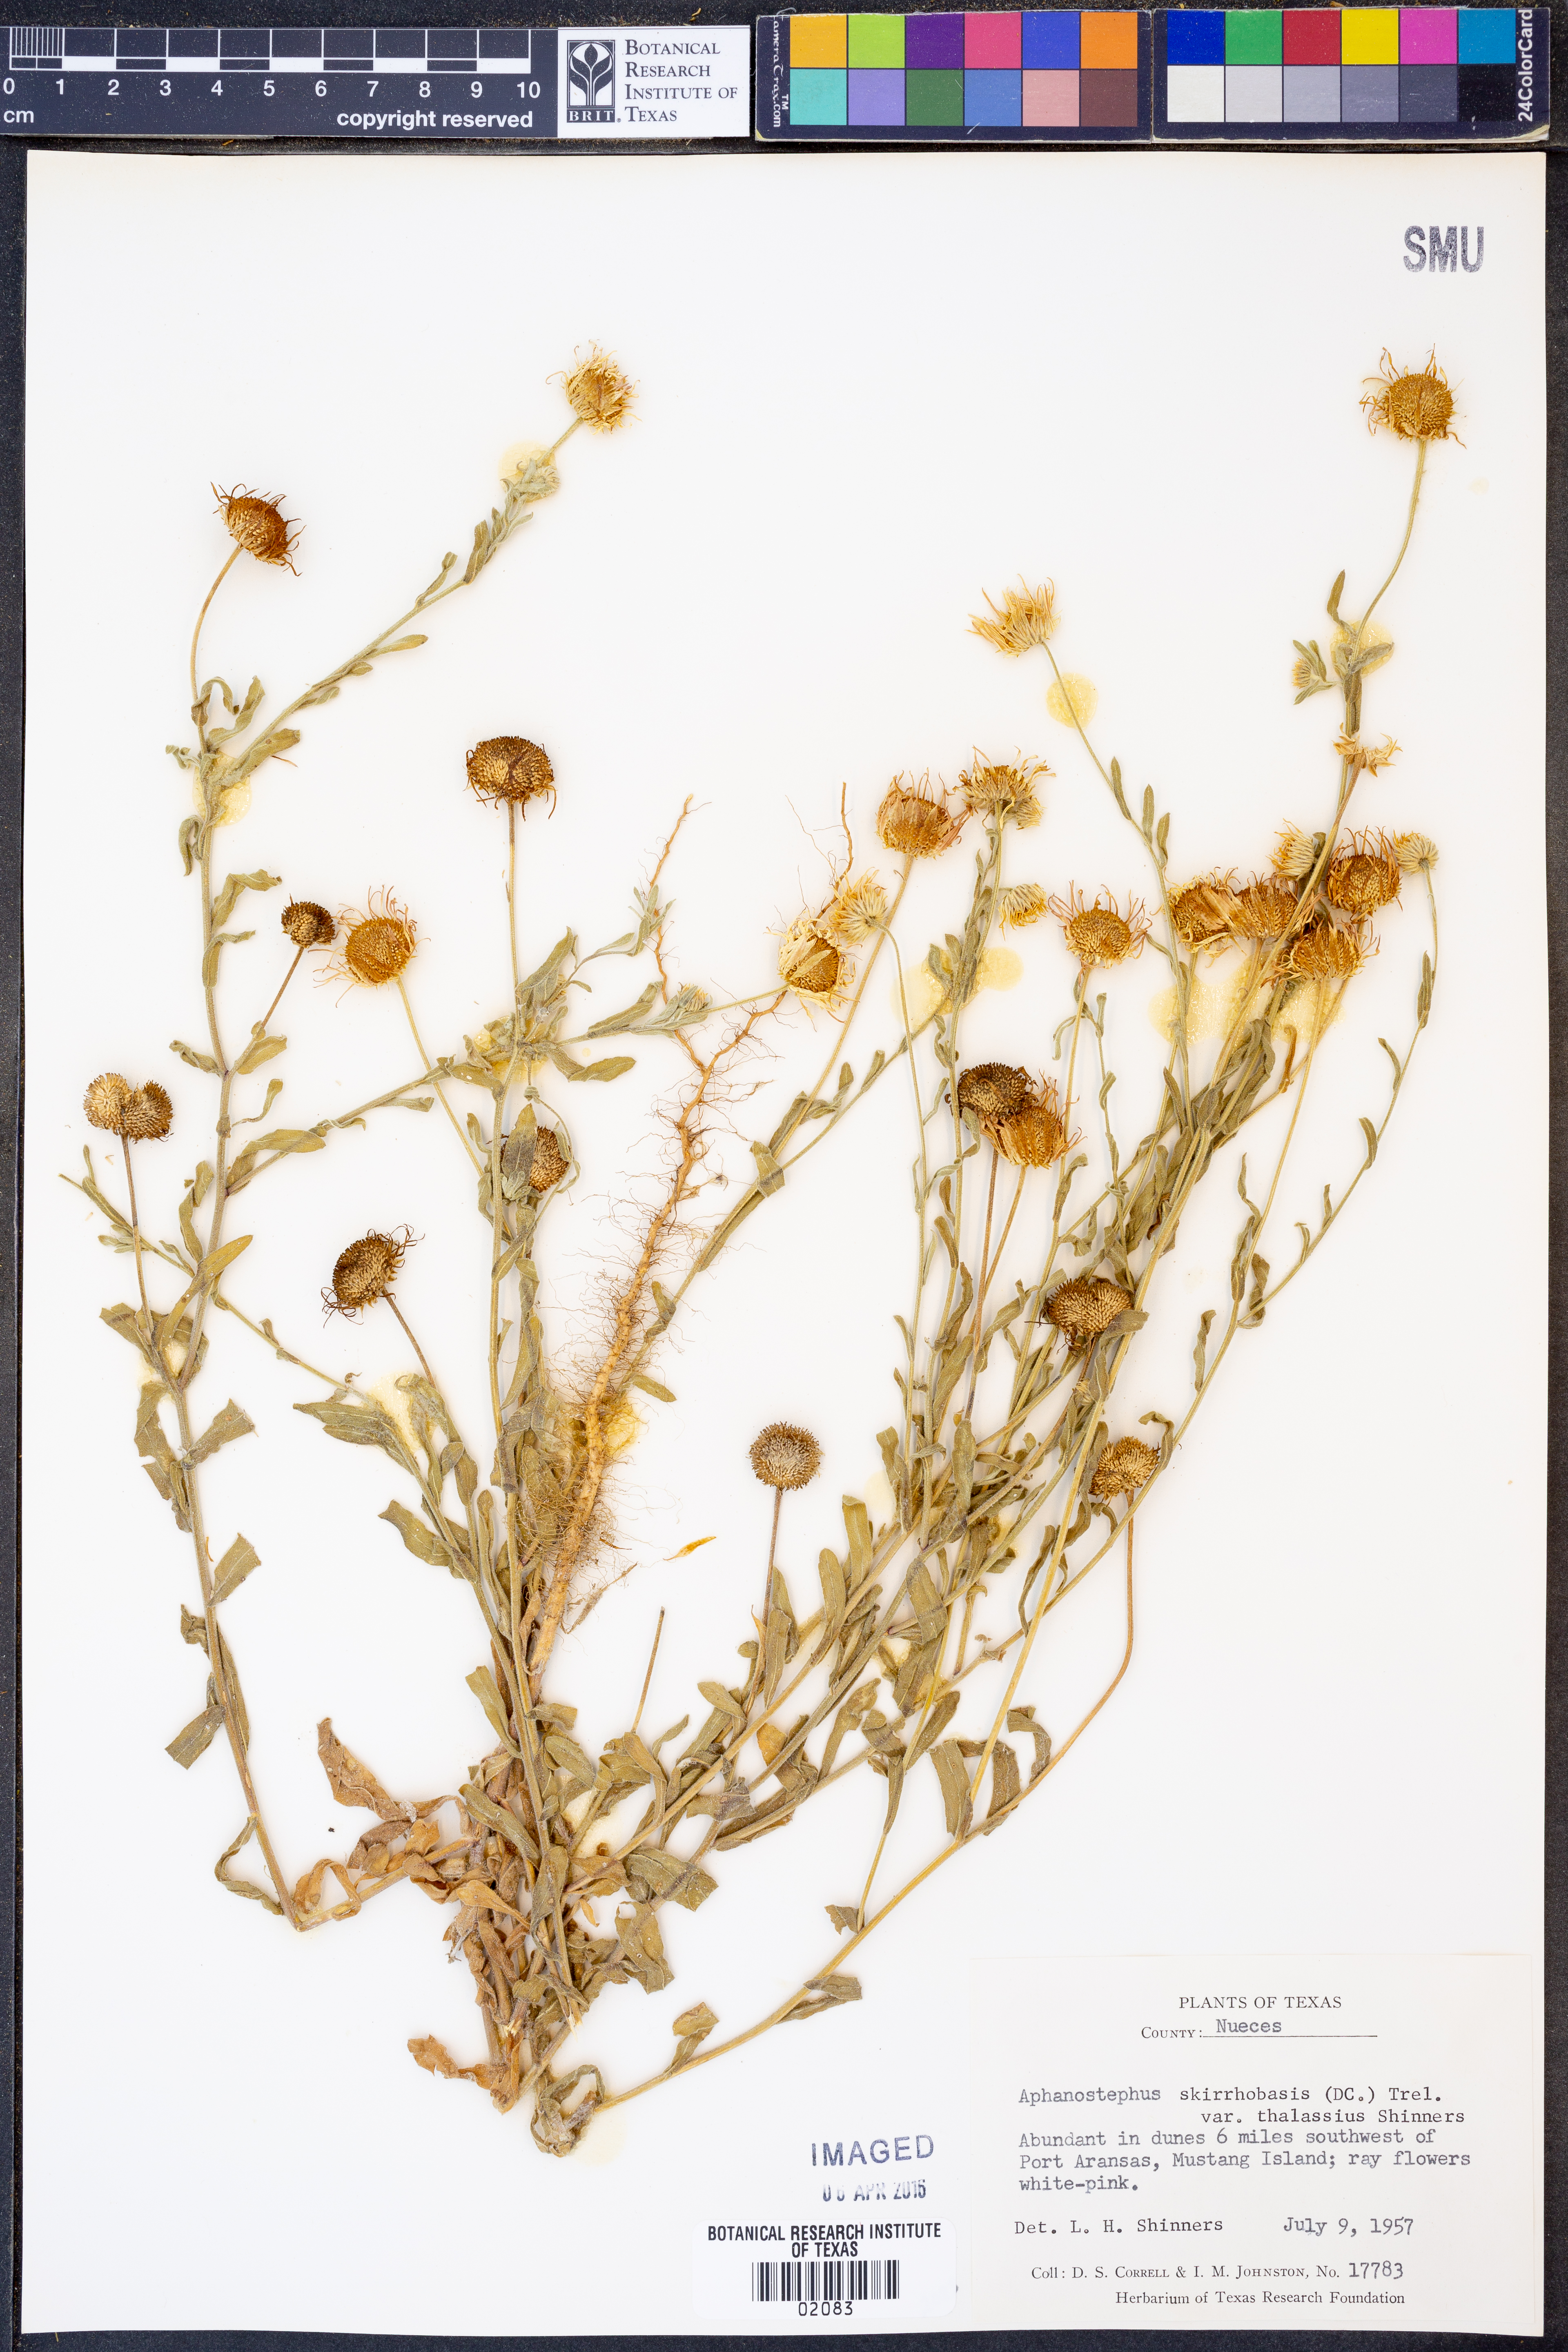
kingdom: Plantae
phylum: Tracheophyta
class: Magnoliopsida
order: Asterales
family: Asteraceae
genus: Aphanostephus
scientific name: Aphanostephus skirrhobasis
